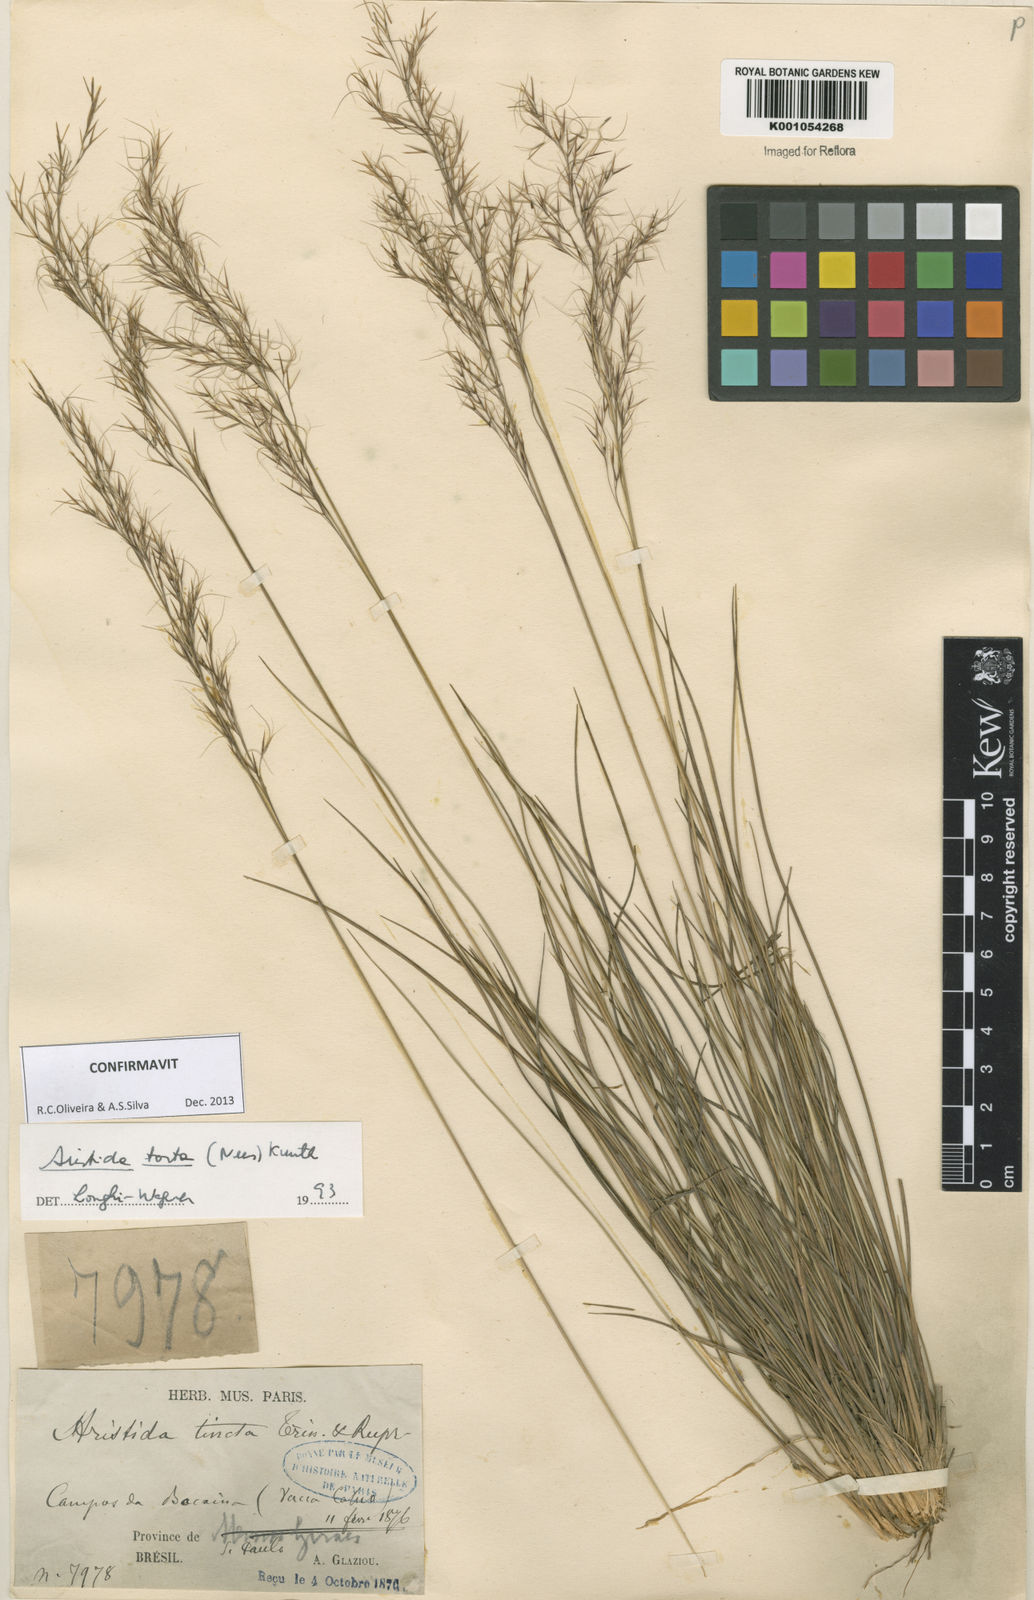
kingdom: Plantae
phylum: Tracheophyta
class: Liliopsida
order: Poales
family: Poaceae
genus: Aristida
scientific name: Aristida torta
